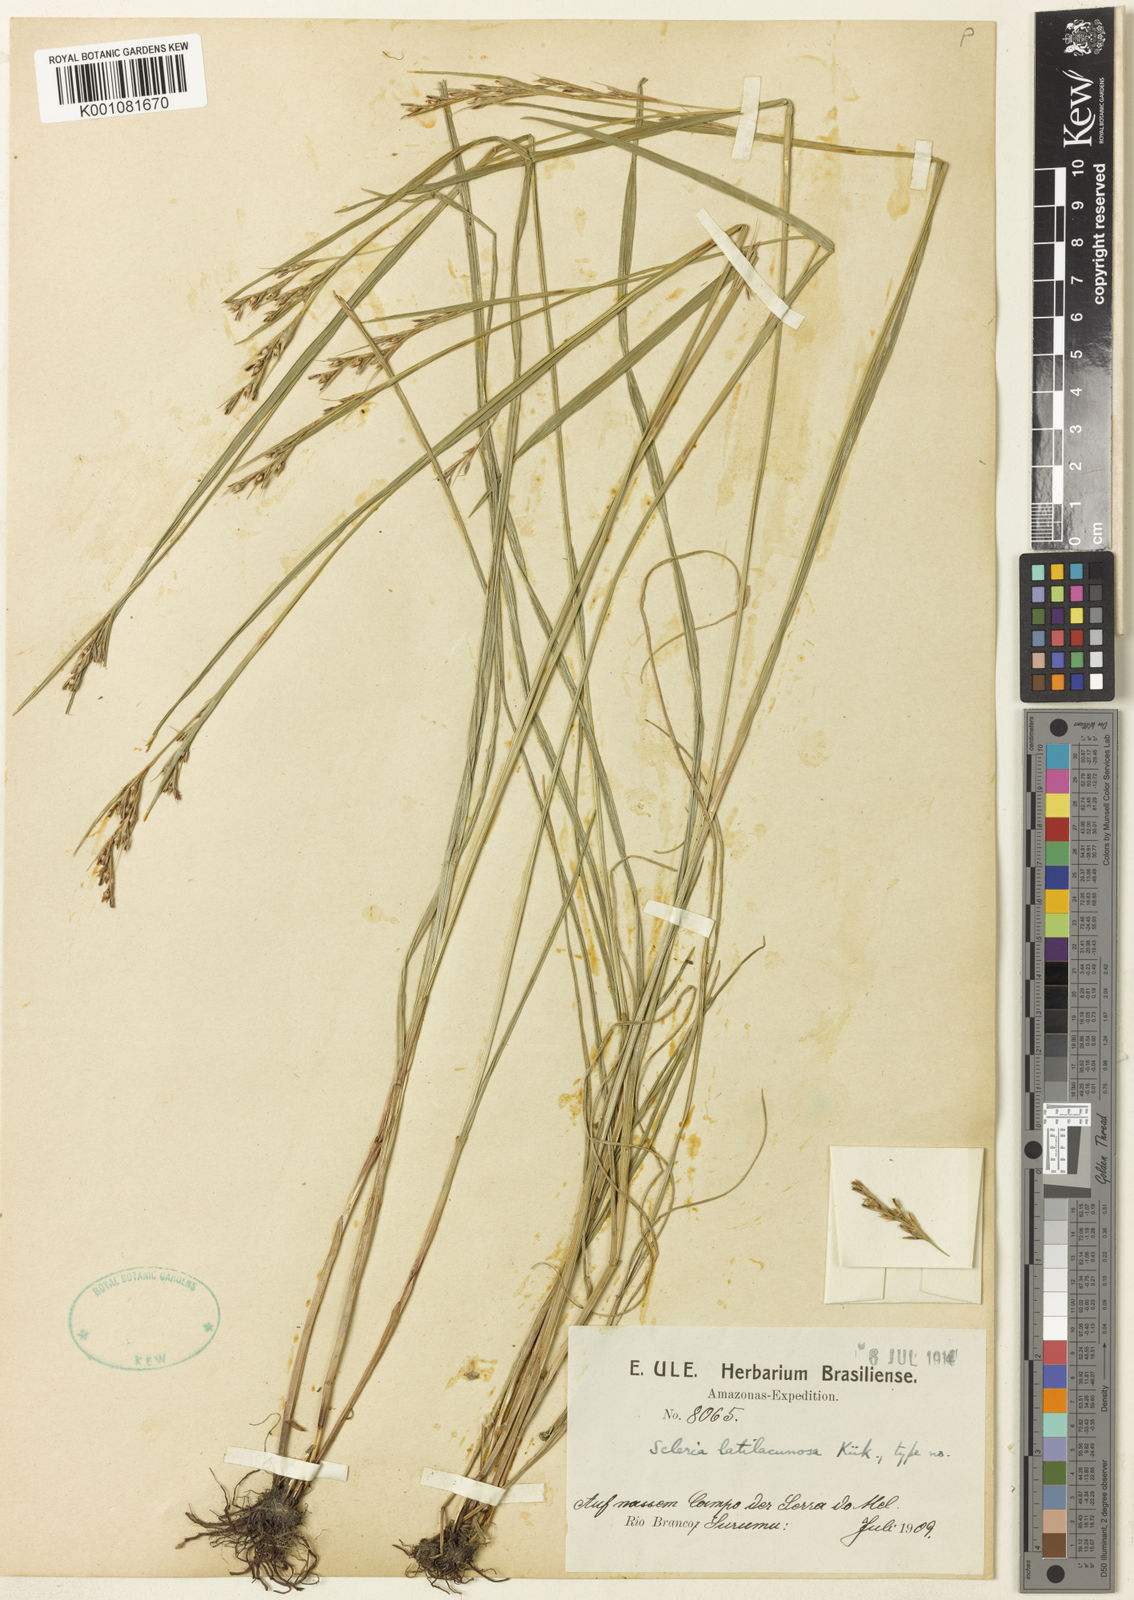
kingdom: Plantae
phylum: Tracheophyta
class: Liliopsida
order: Poales
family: Cyperaceae
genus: Scleria
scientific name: Scleria
